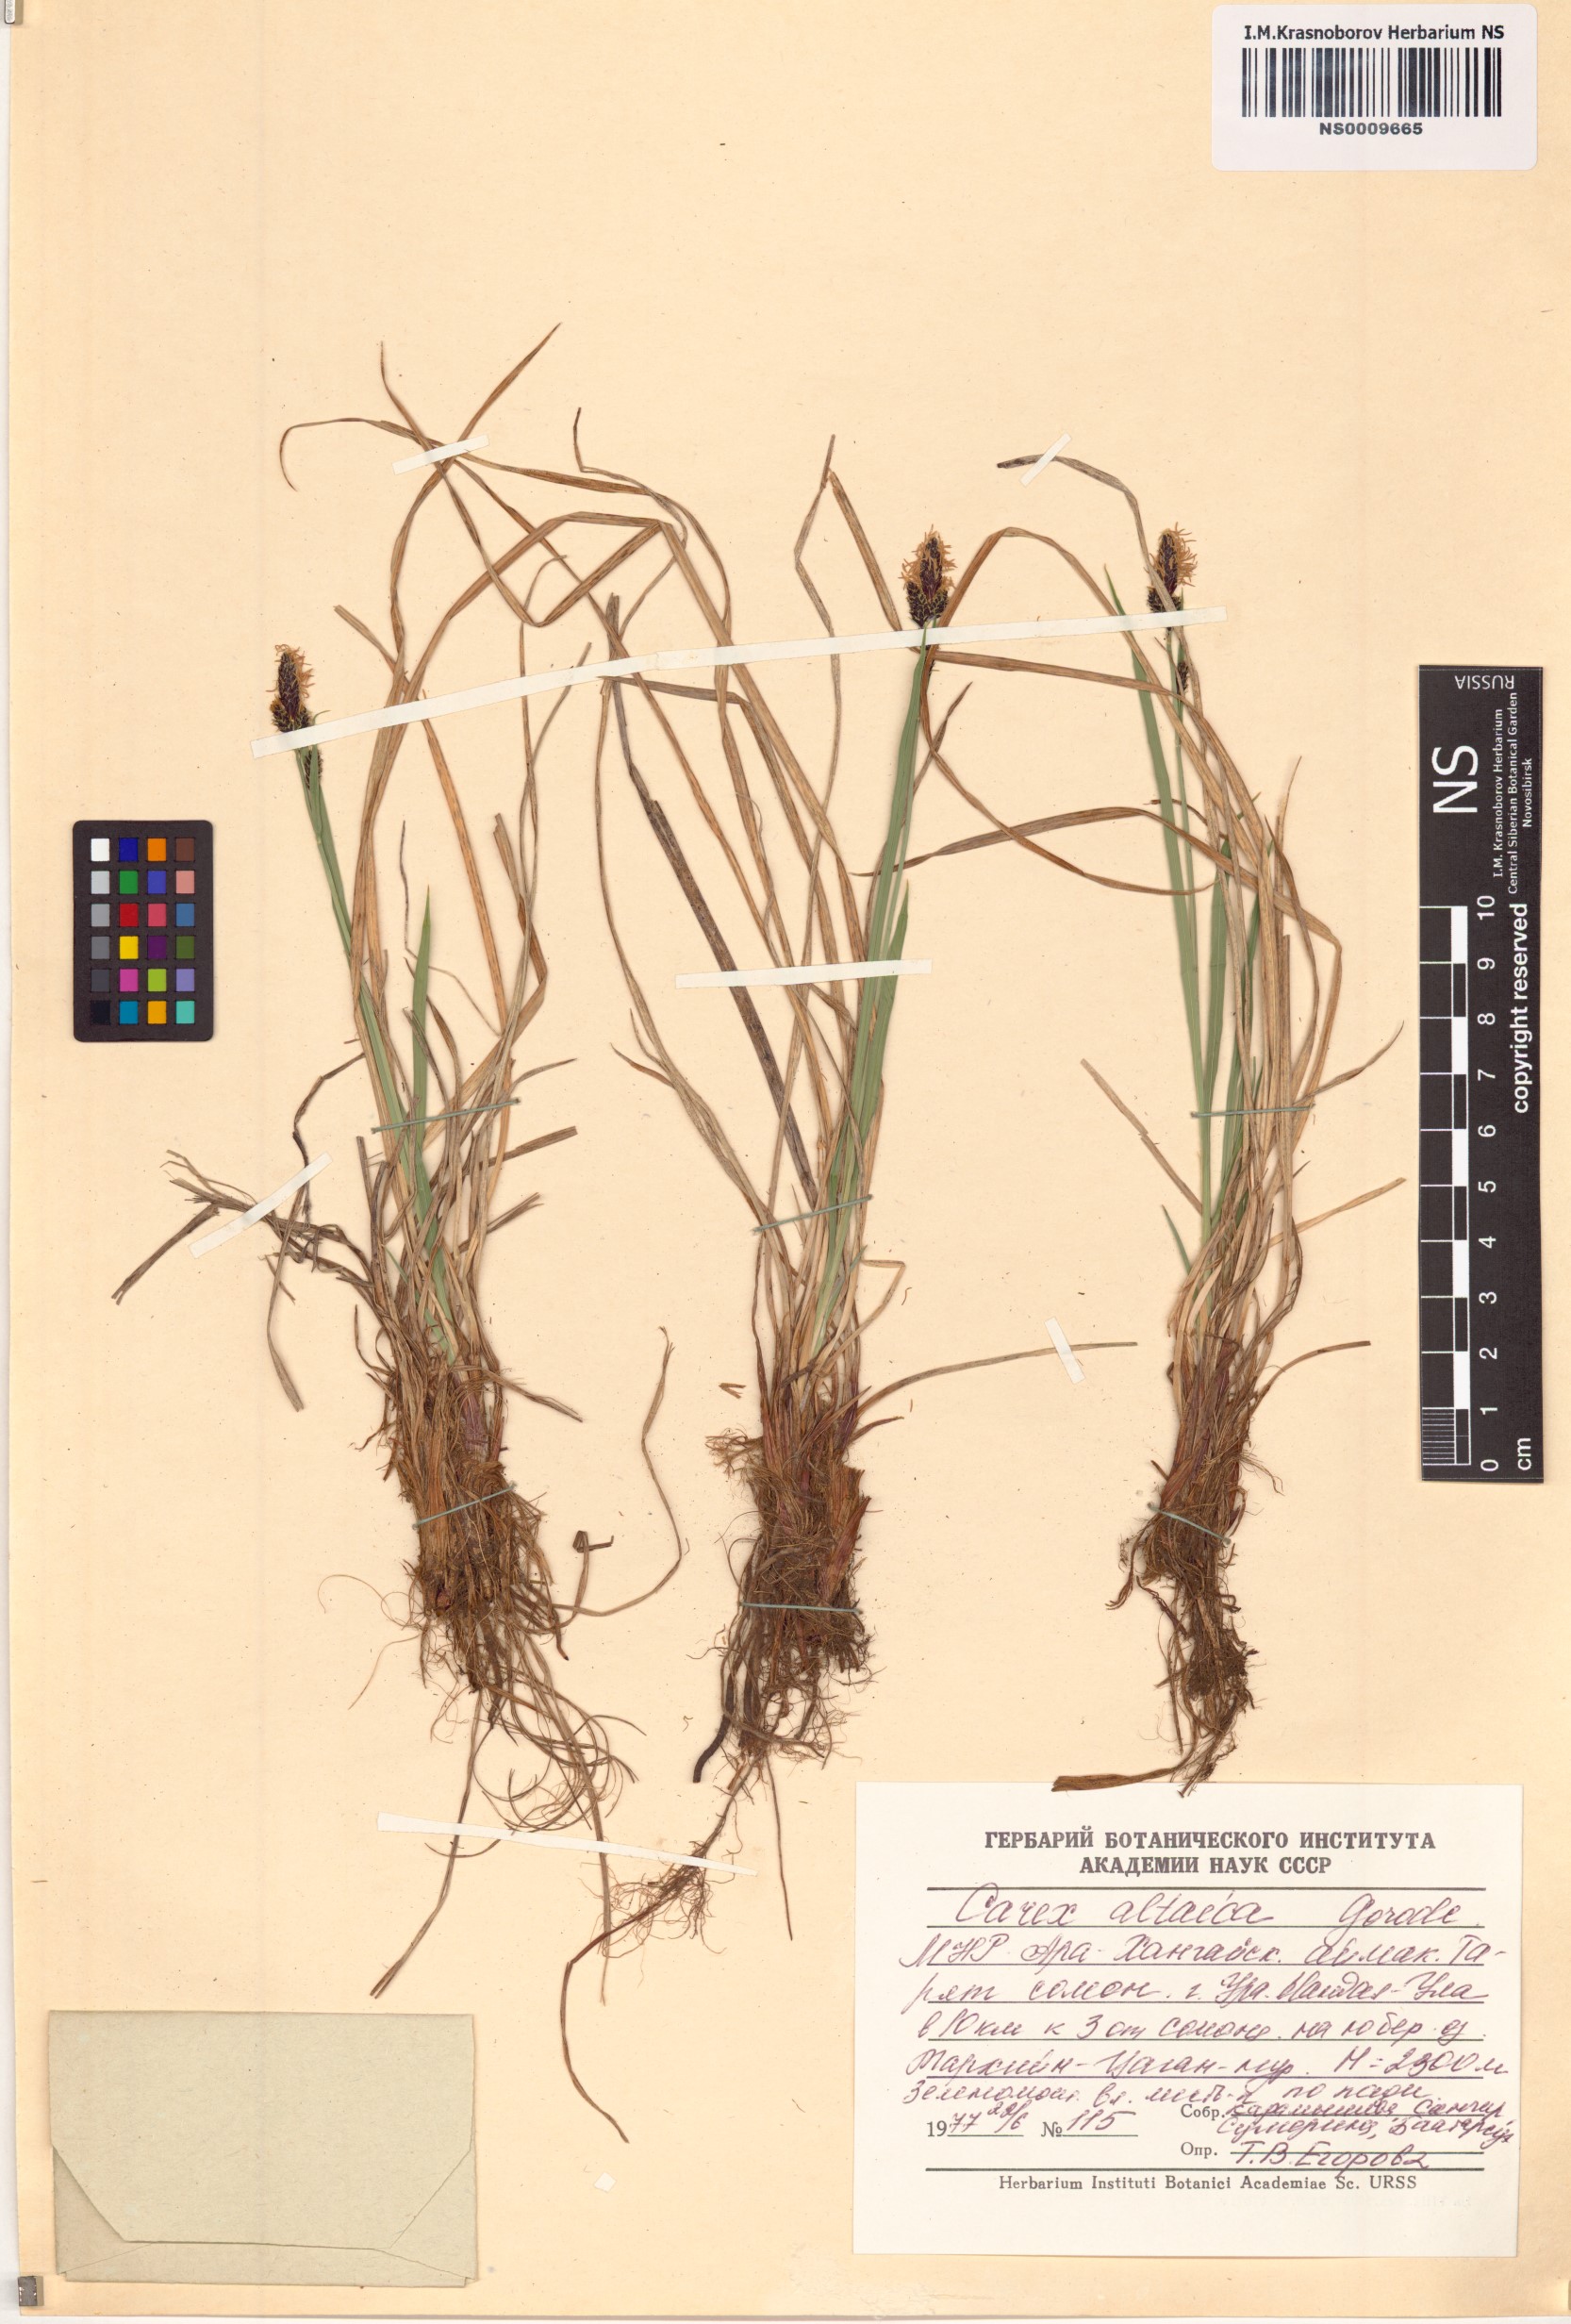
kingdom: Plantae
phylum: Tracheophyta
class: Liliopsida
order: Poales
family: Cyperaceae
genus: Carex
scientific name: Carex altaica
